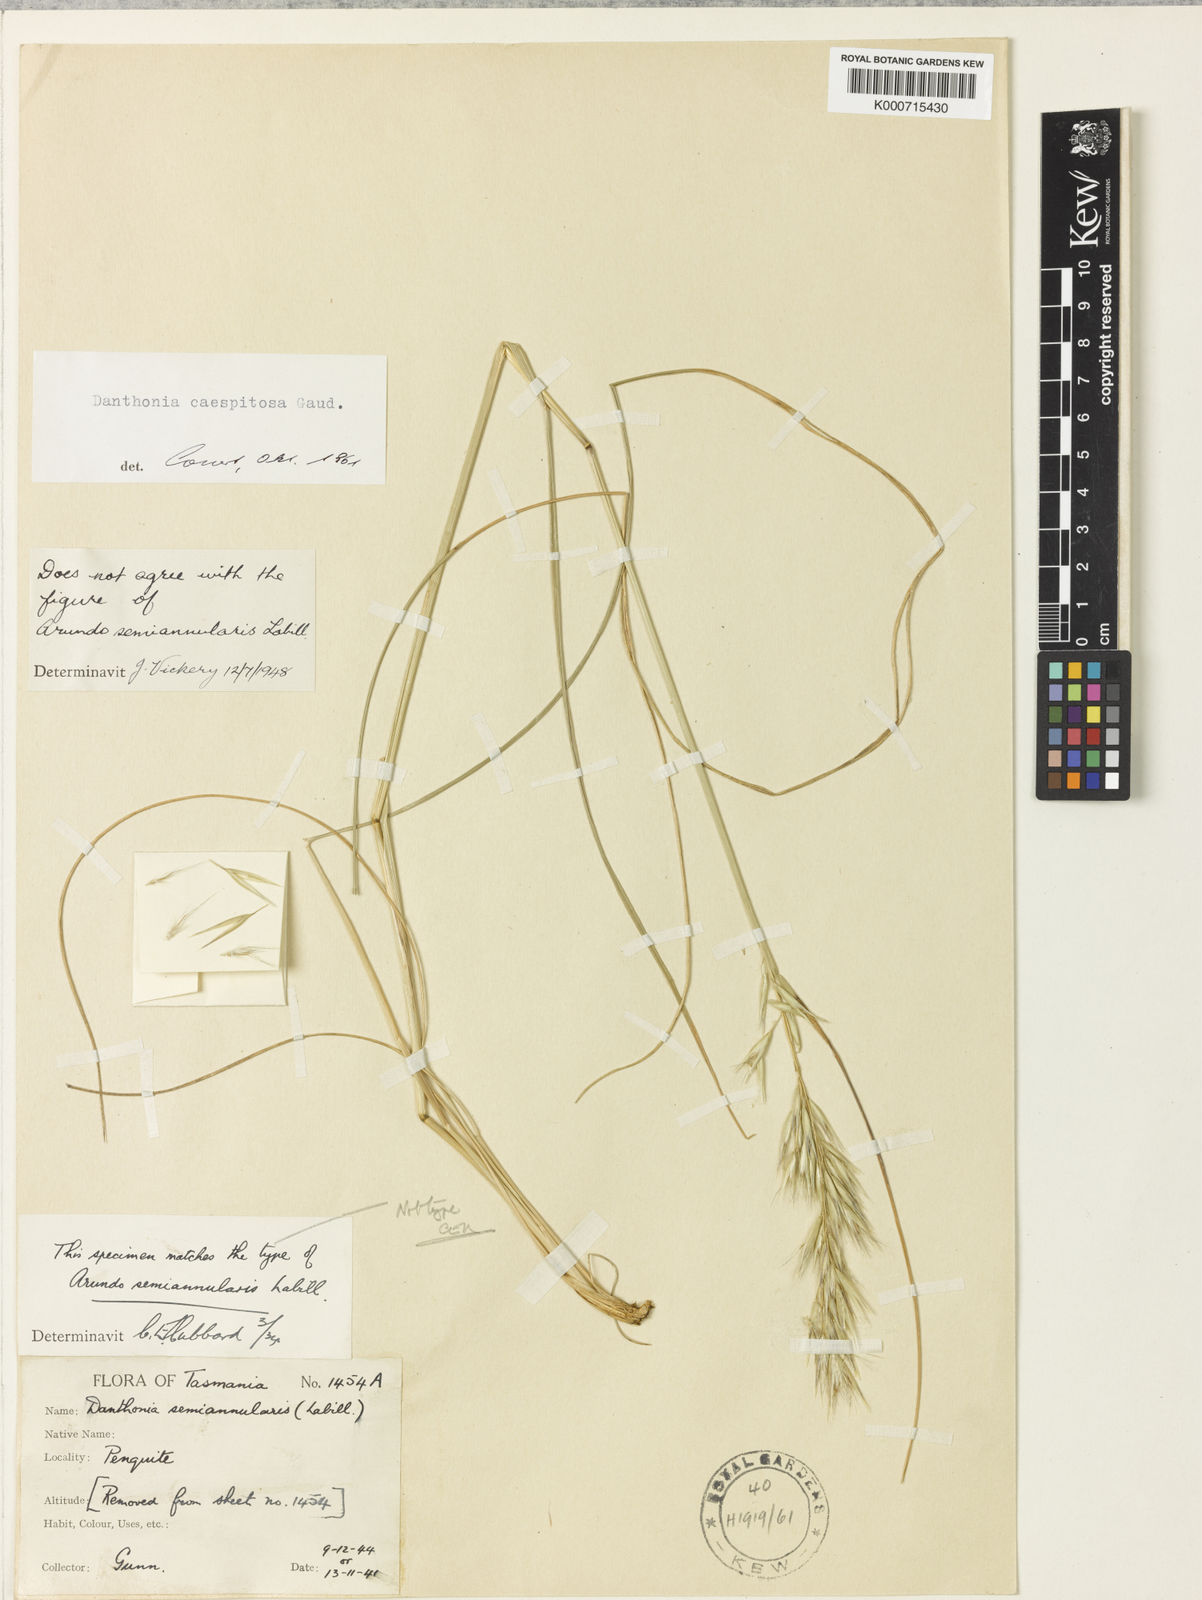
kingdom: Plantae
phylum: Tracheophyta
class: Liliopsida
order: Poales
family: Poaceae
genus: Rytidosperma
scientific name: Rytidosperma semiannulare
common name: Tasmanian wallaby grass
